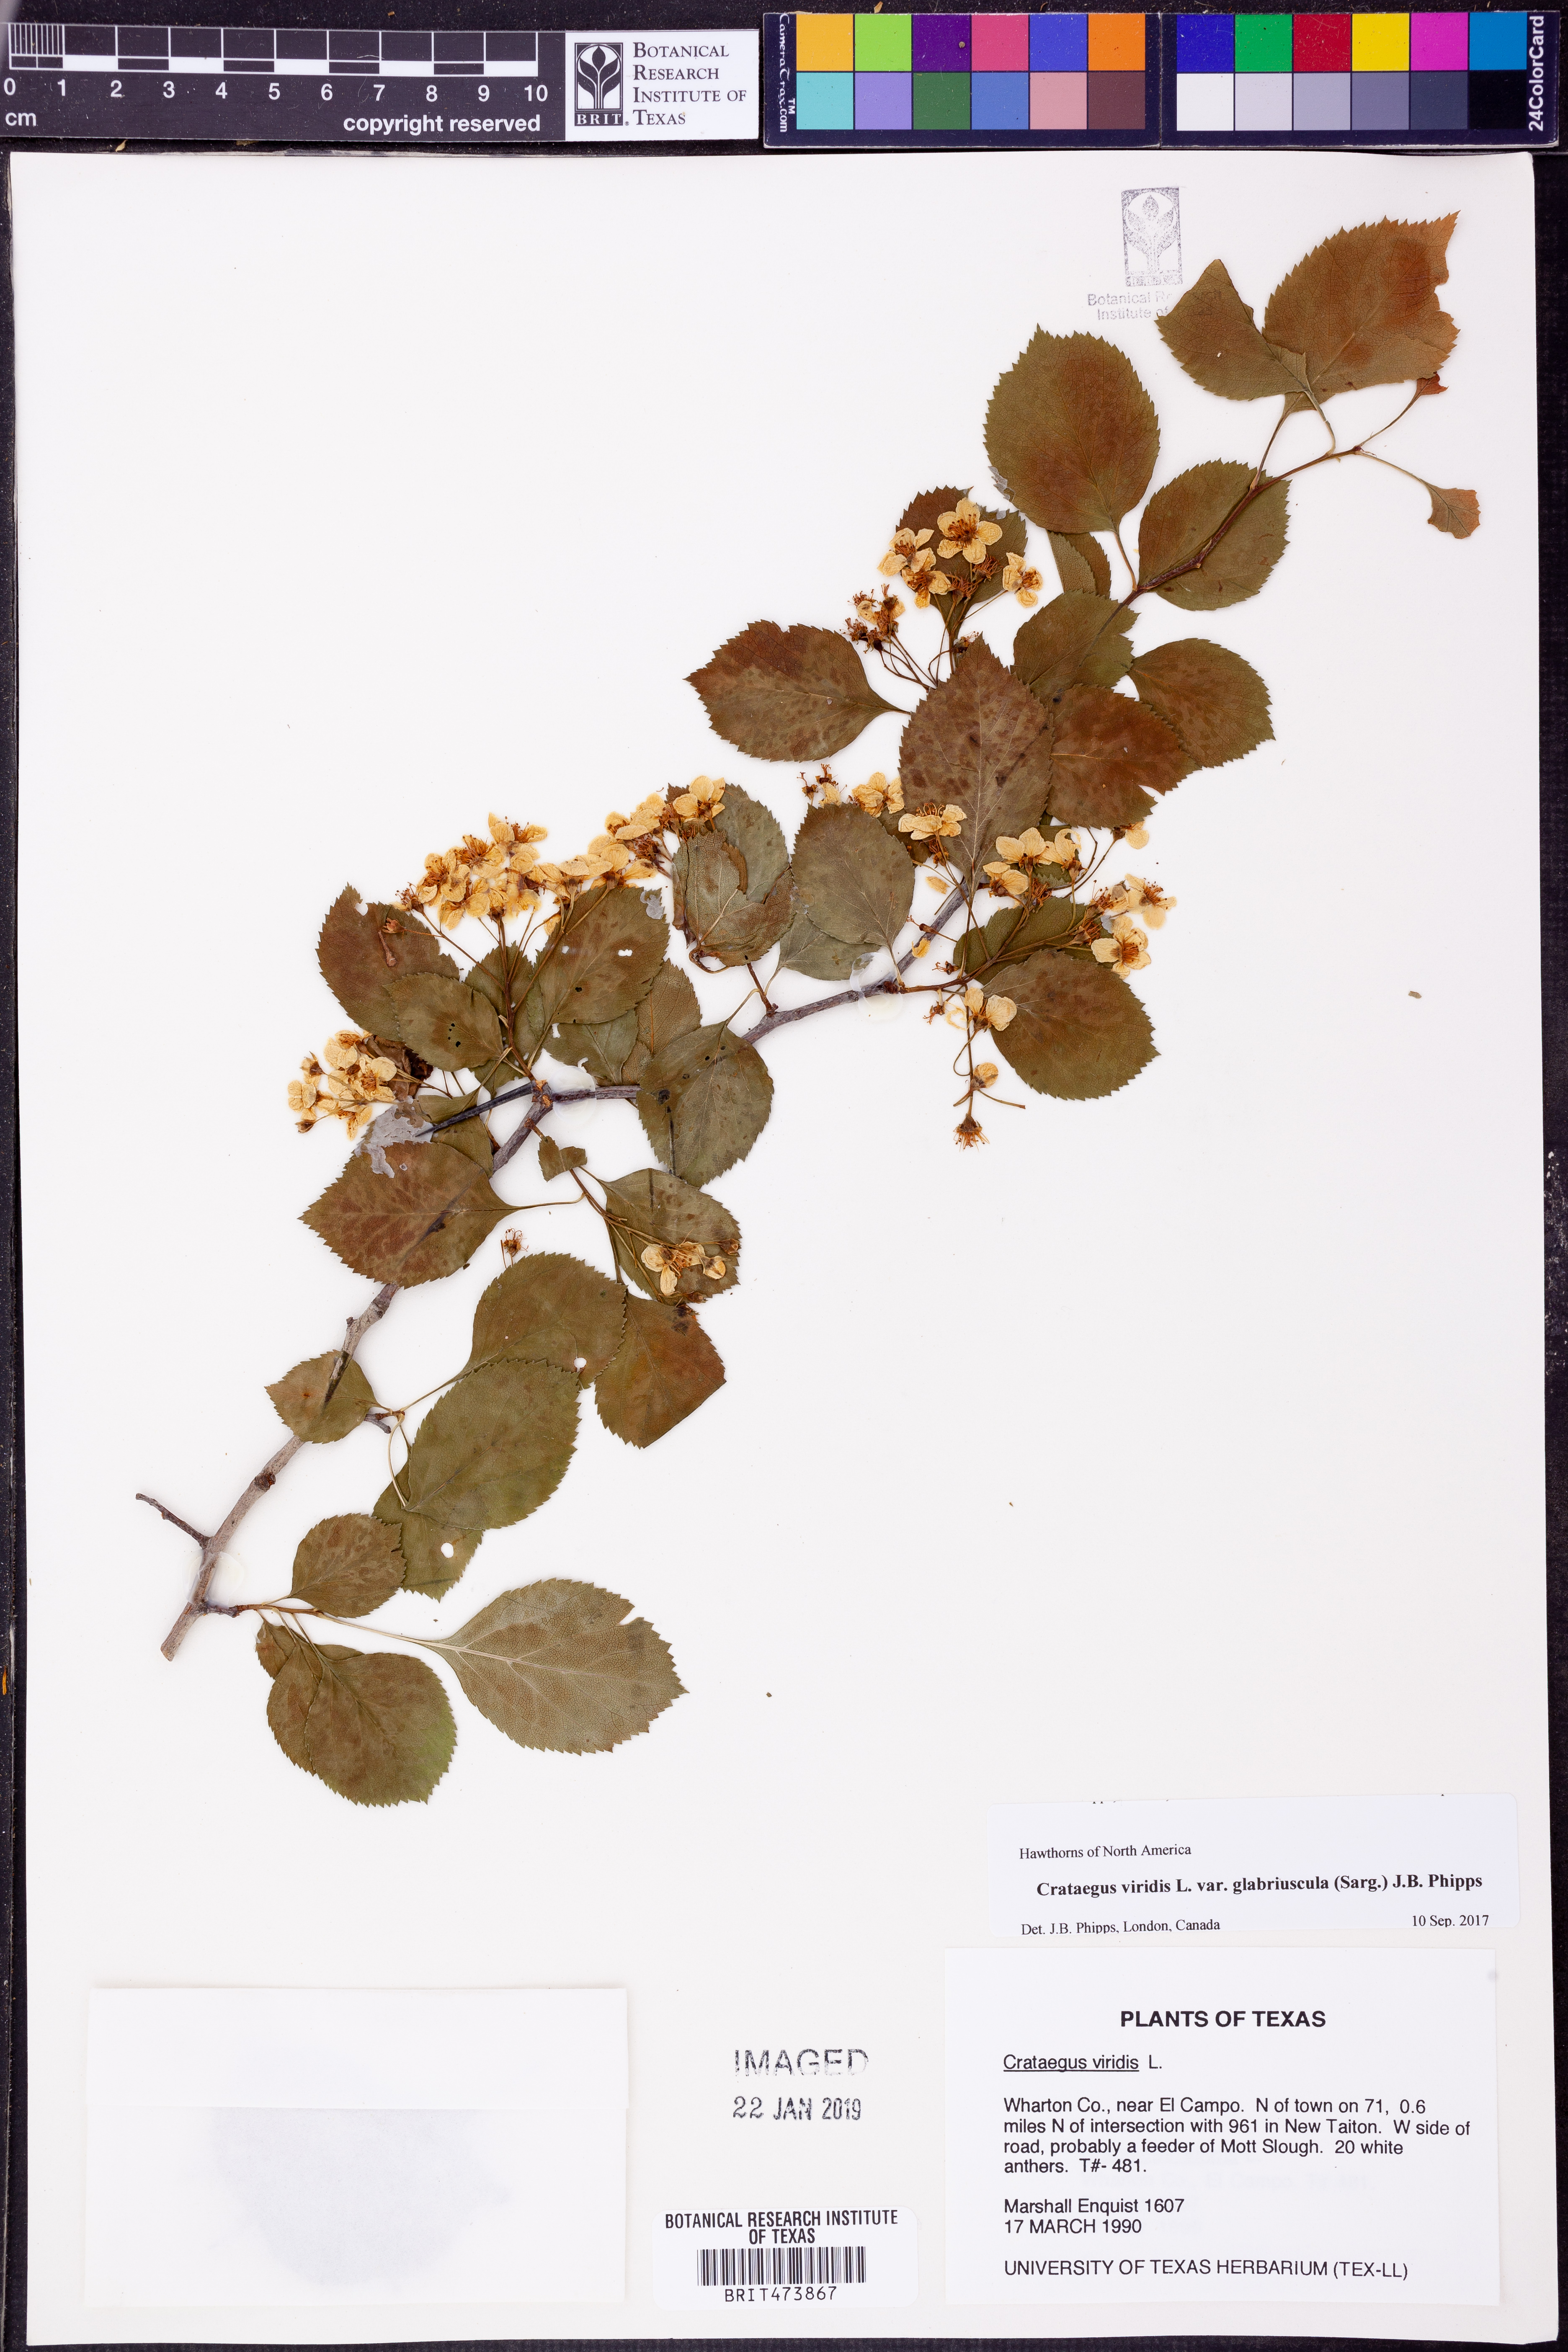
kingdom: Plantae
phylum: Tracheophyta
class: Magnoliopsida
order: Rosales
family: Rosaceae
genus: Crataegus
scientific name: Crataegus viridis
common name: Southernthorn
